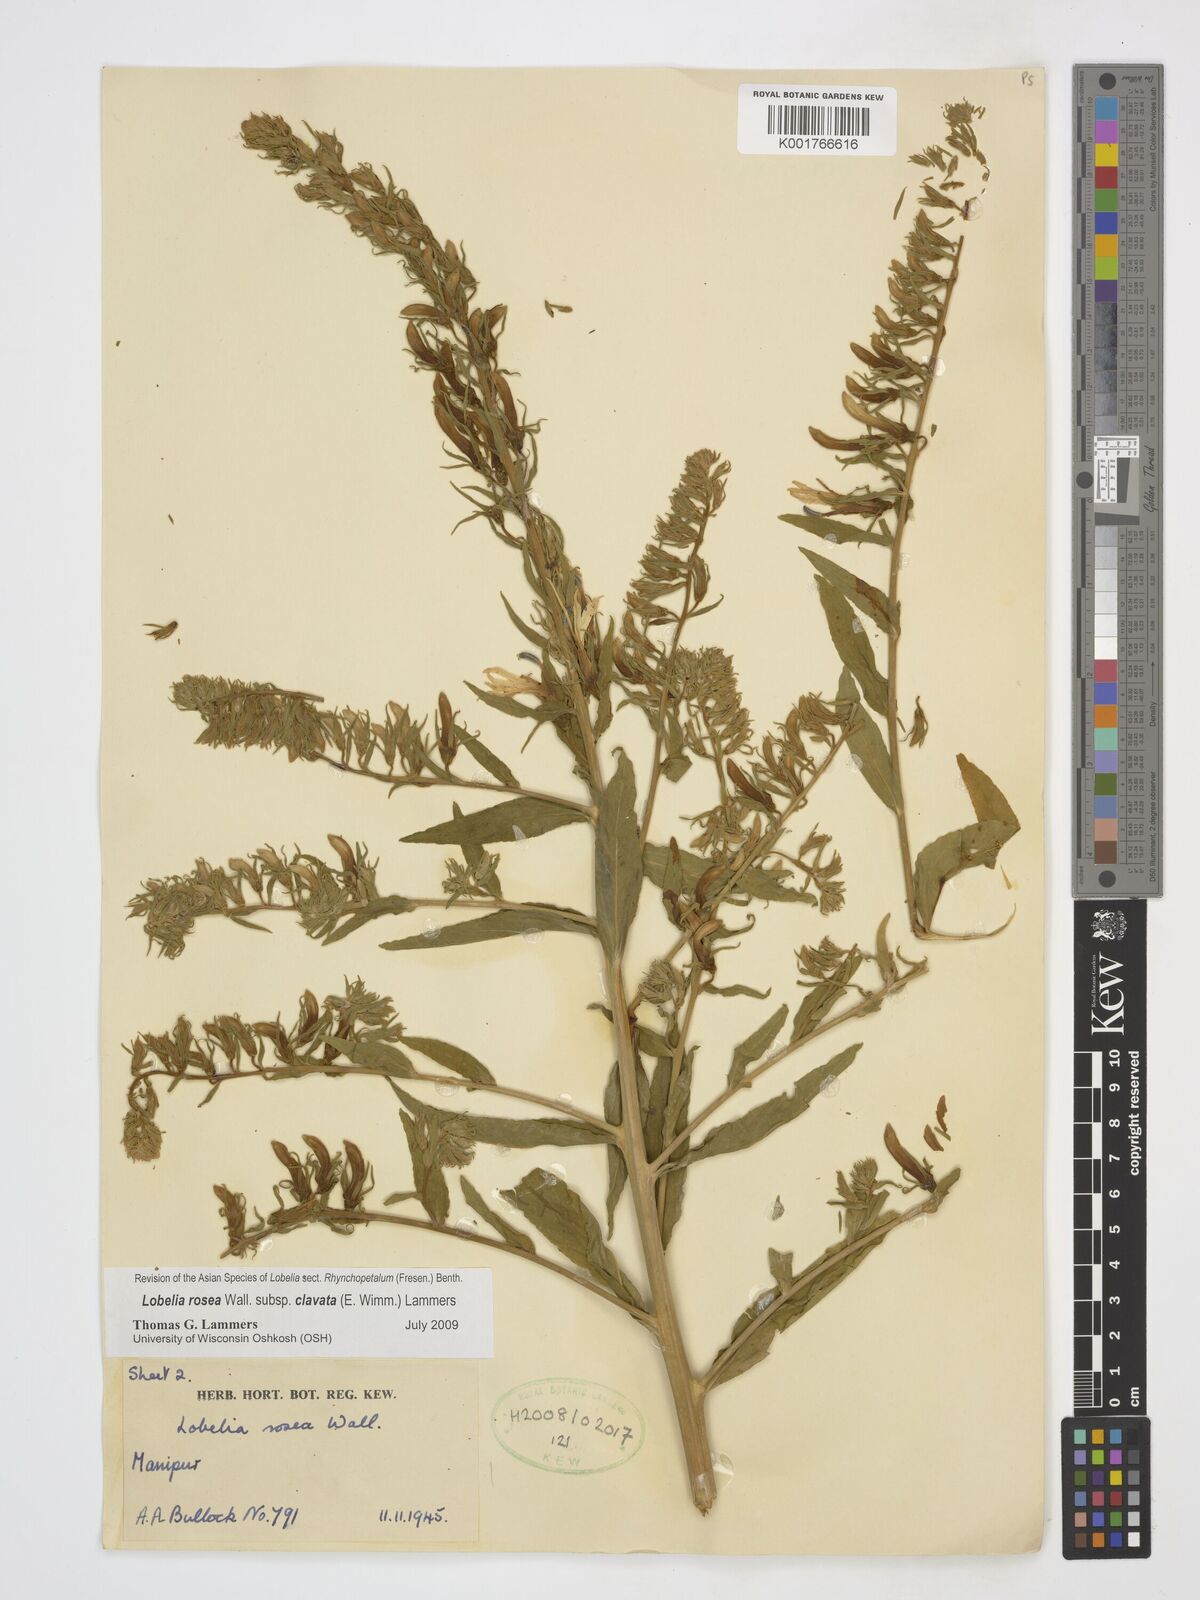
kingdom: Plantae
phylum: Tracheophyta
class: Magnoliopsida
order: Asterales
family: Campanulaceae
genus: Lobelia
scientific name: Lobelia rosea
